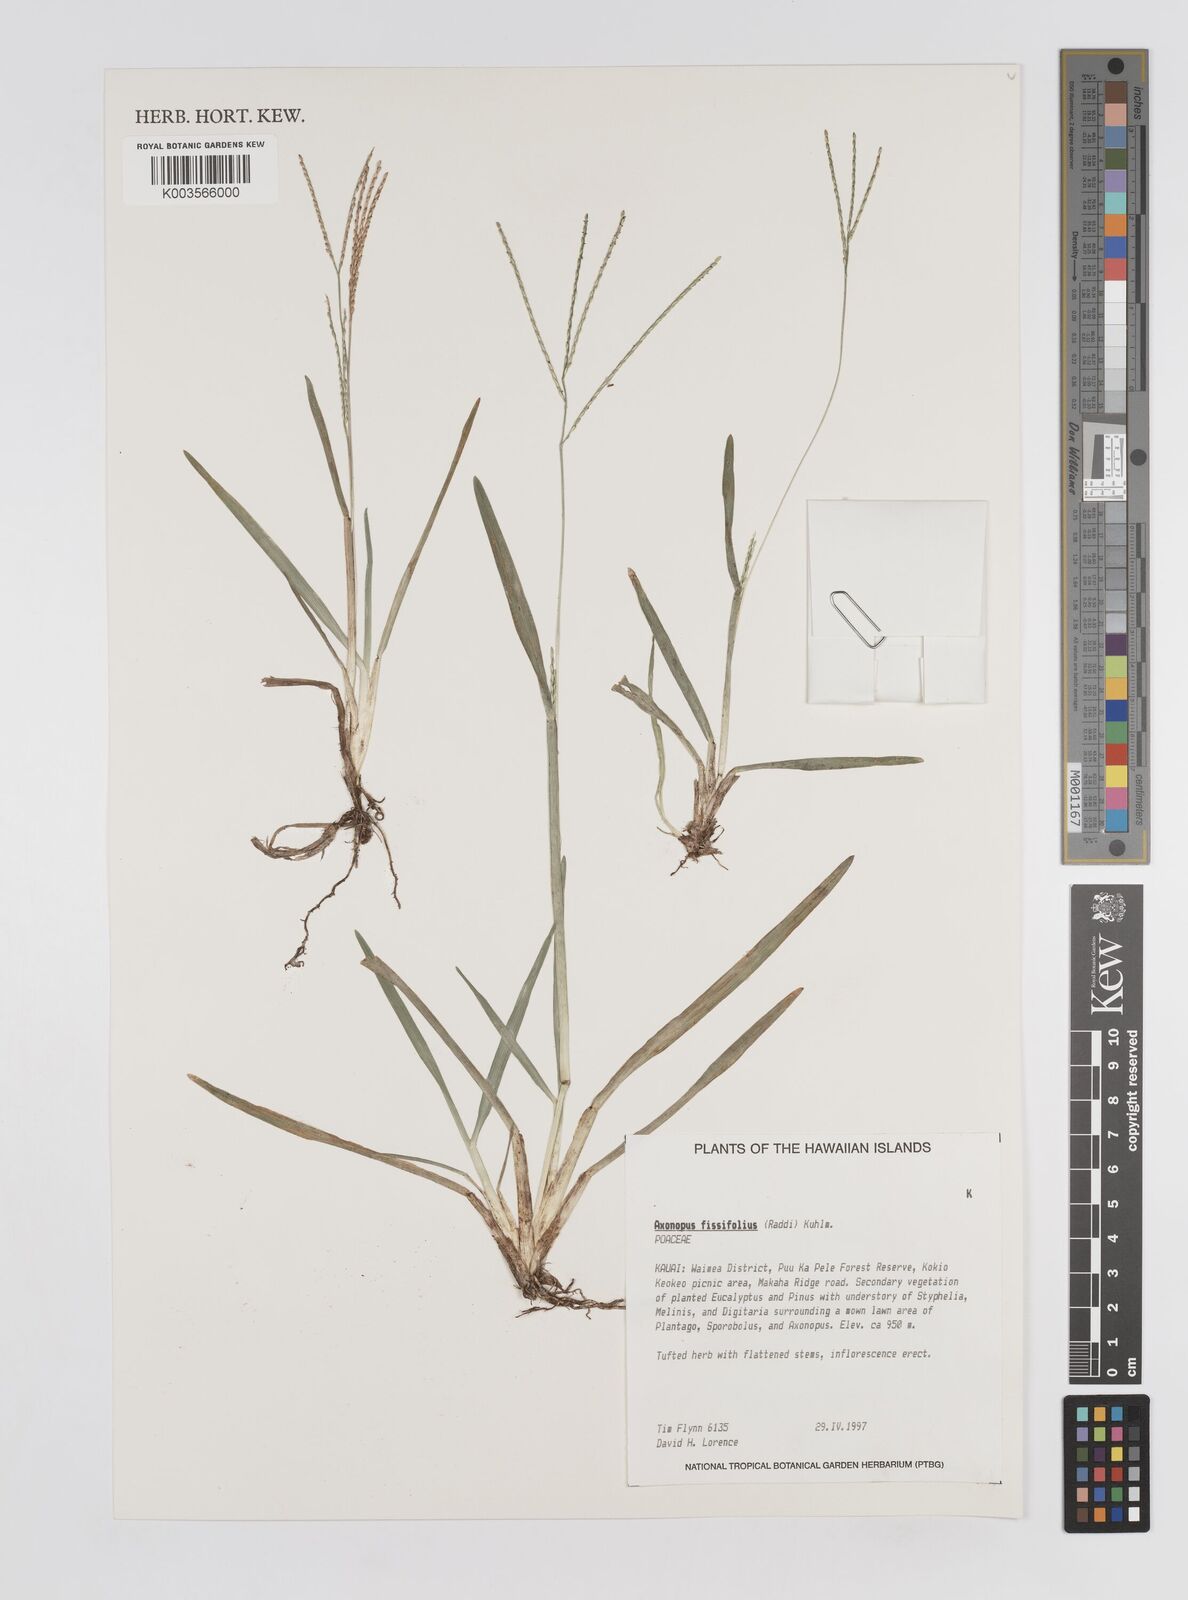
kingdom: Plantae
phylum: Tracheophyta
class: Liliopsida
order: Poales
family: Poaceae
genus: Axonopus
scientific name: Axonopus fissifolius
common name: Common carpetgrass
